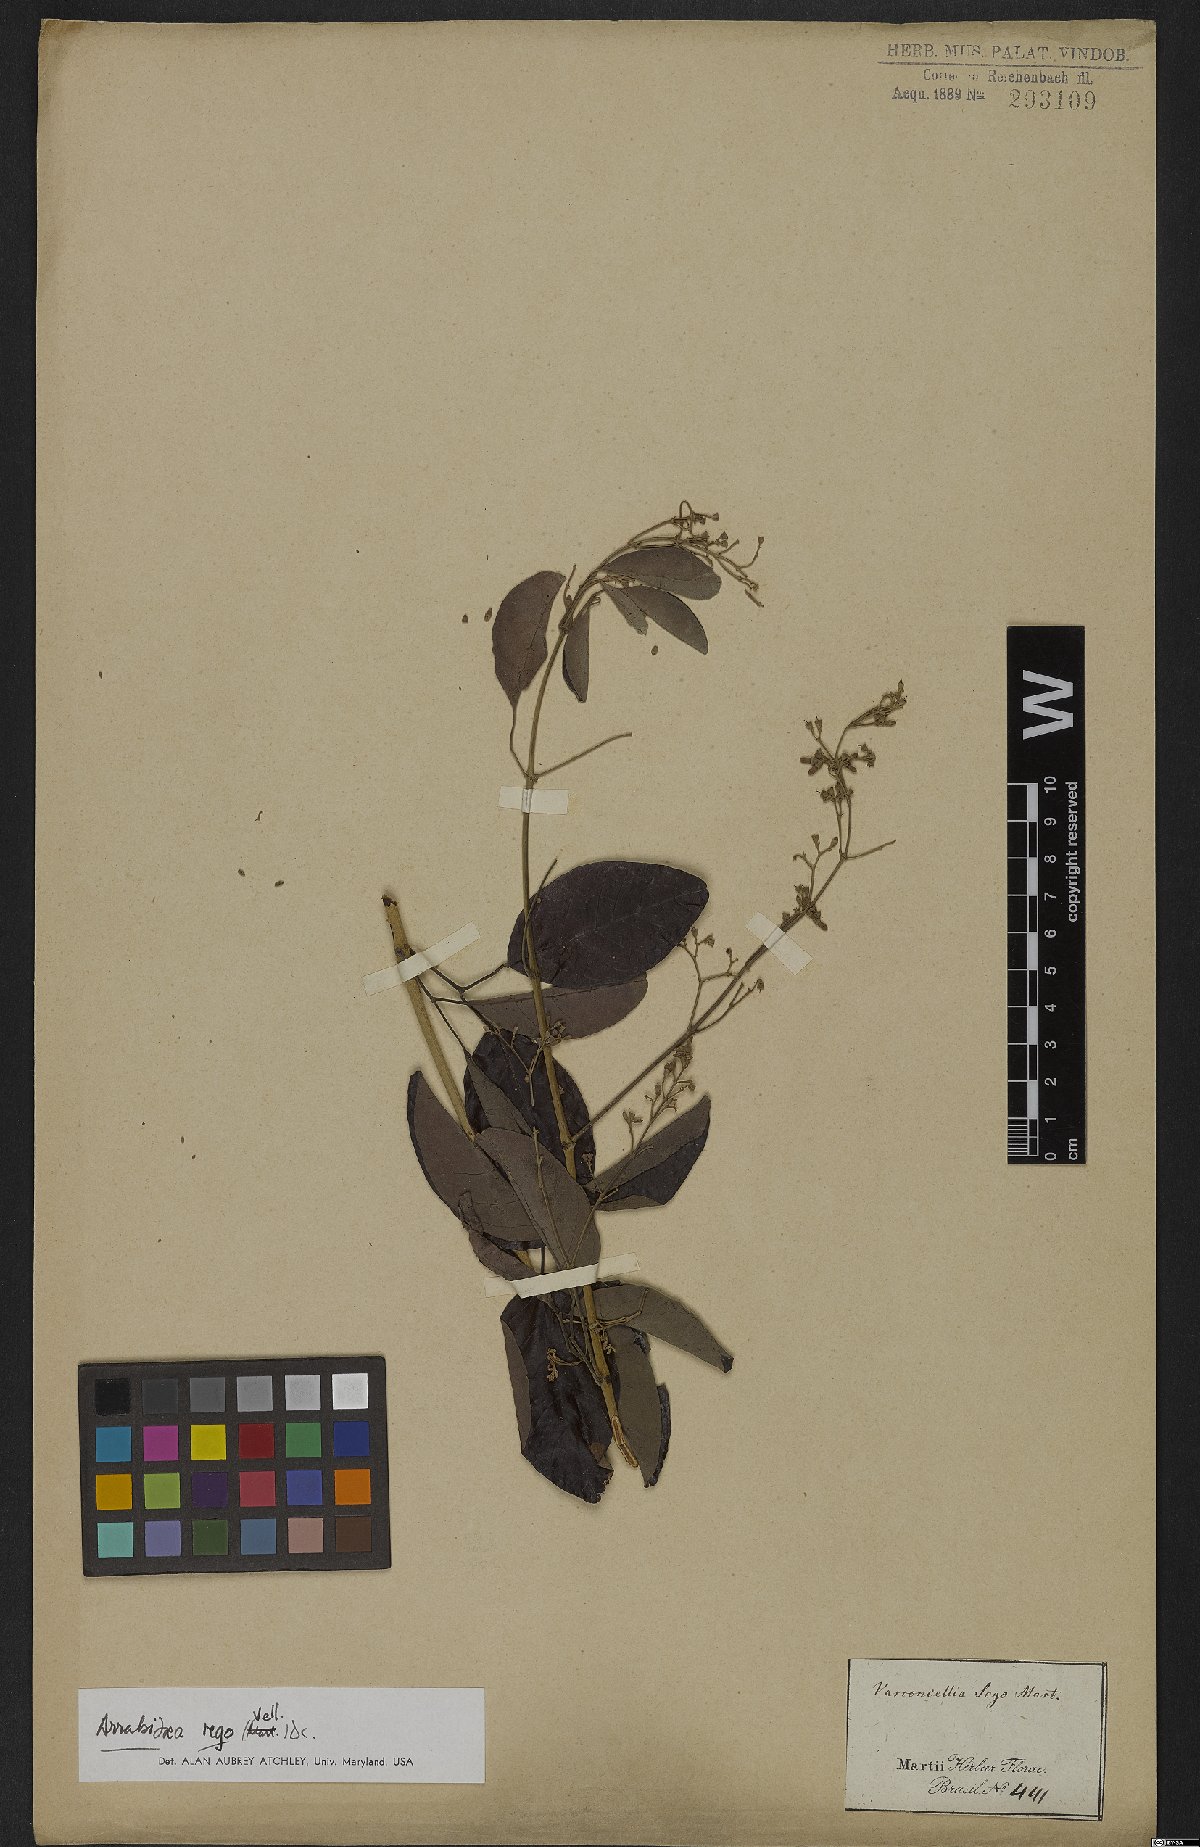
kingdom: Plantae
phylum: Tracheophyta
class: Magnoliopsida
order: Lamiales
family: Bignoniaceae
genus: Fridericia
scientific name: Fridericia rego
